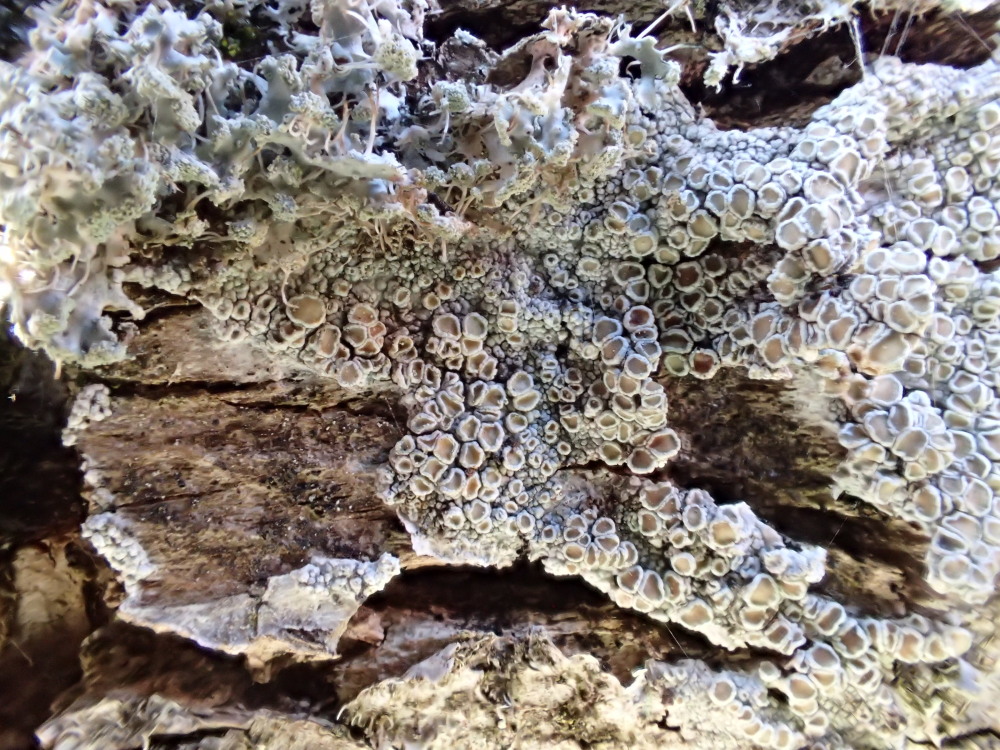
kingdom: Fungi
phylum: Ascomycota
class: Lecanoromycetes
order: Lecanorales
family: Lecanoraceae
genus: Lecanora
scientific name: Lecanora chlarotera
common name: brun kantskivelav
